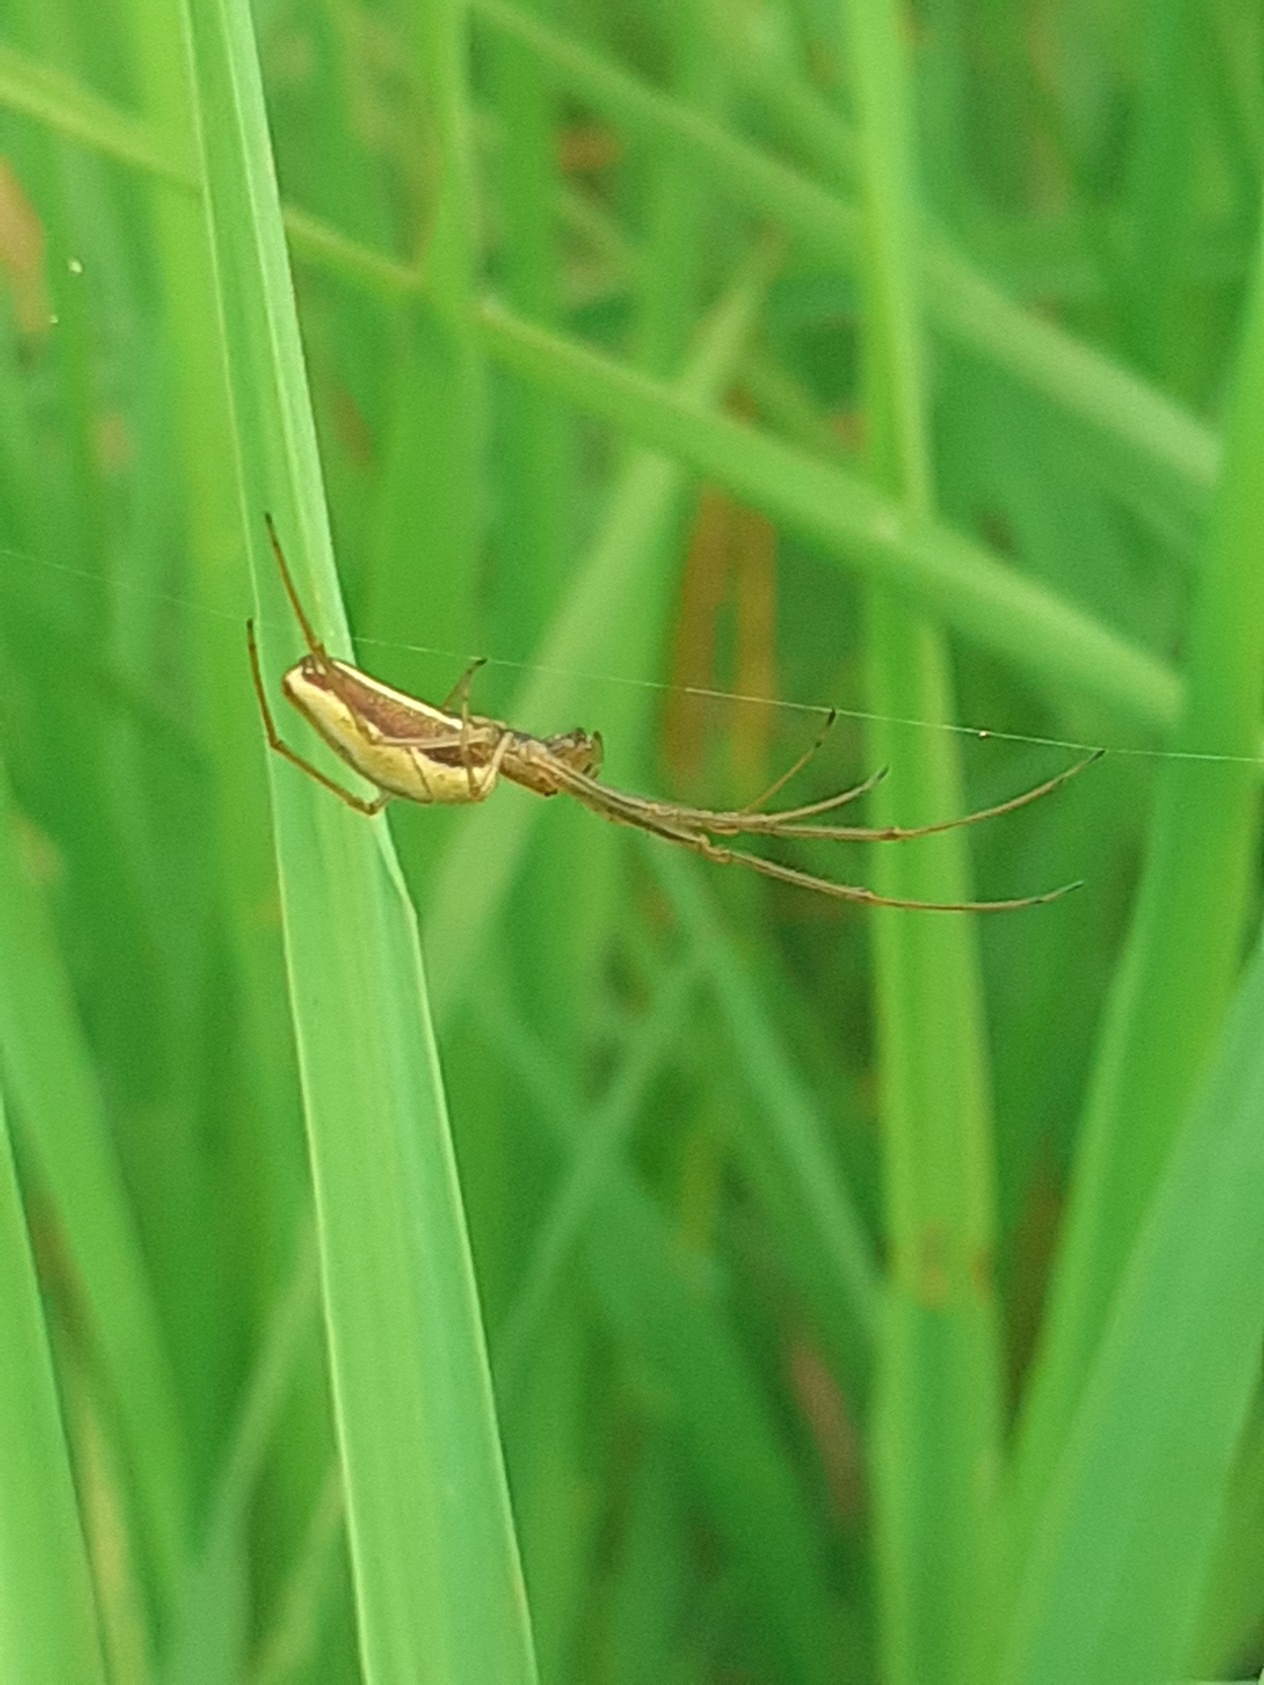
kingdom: Animalia
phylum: Arthropoda
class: Arachnida
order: Araneae
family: Tetragnathidae
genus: Tetragnatha
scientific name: Tetragnatha extensa
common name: Engstavedderkop
